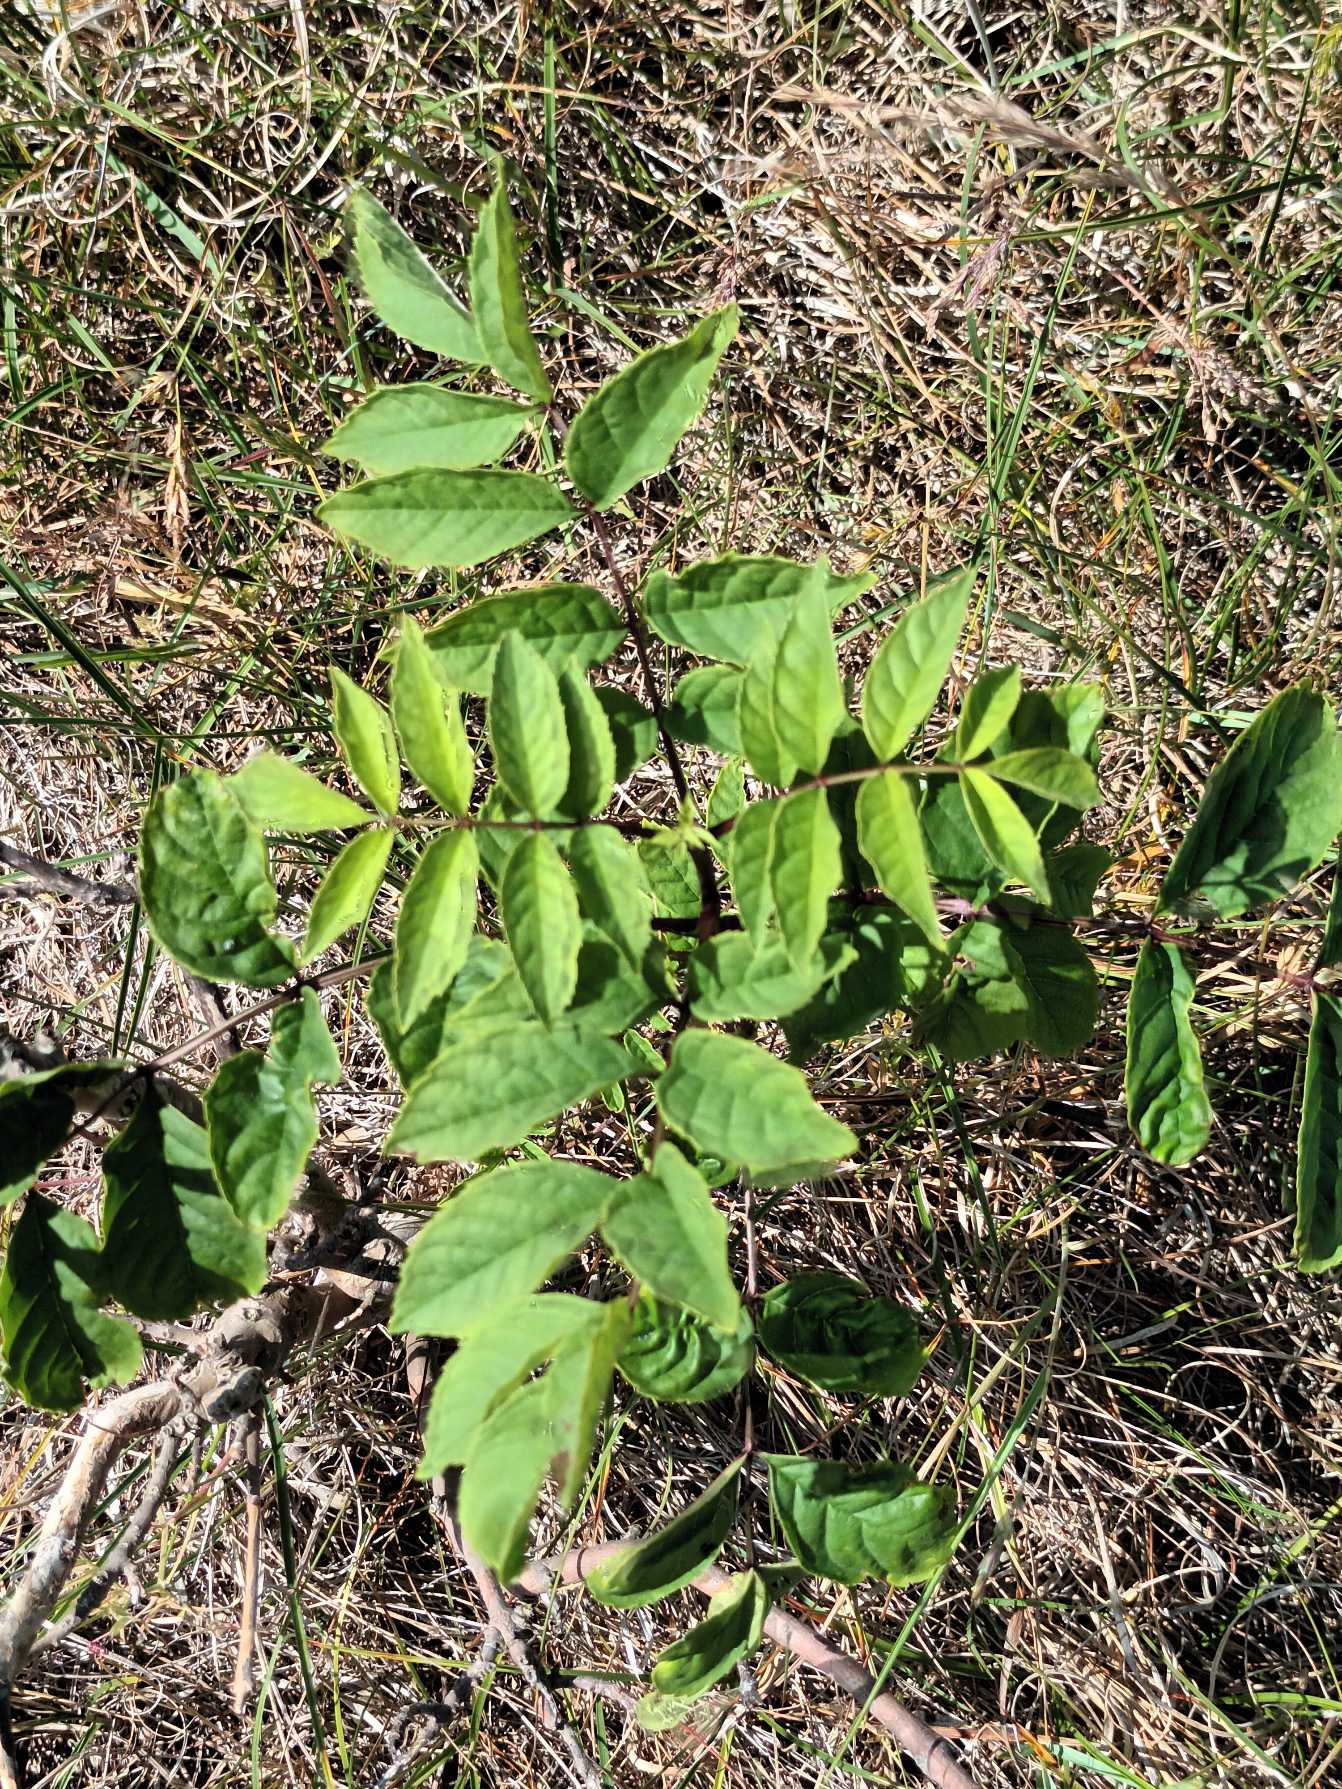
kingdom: Plantae
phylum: Tracheophyta
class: Magnoliopsida
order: Lamiales
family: Oleaceae
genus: Fraxinus
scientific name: Fraxinus excelsior
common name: Ask
